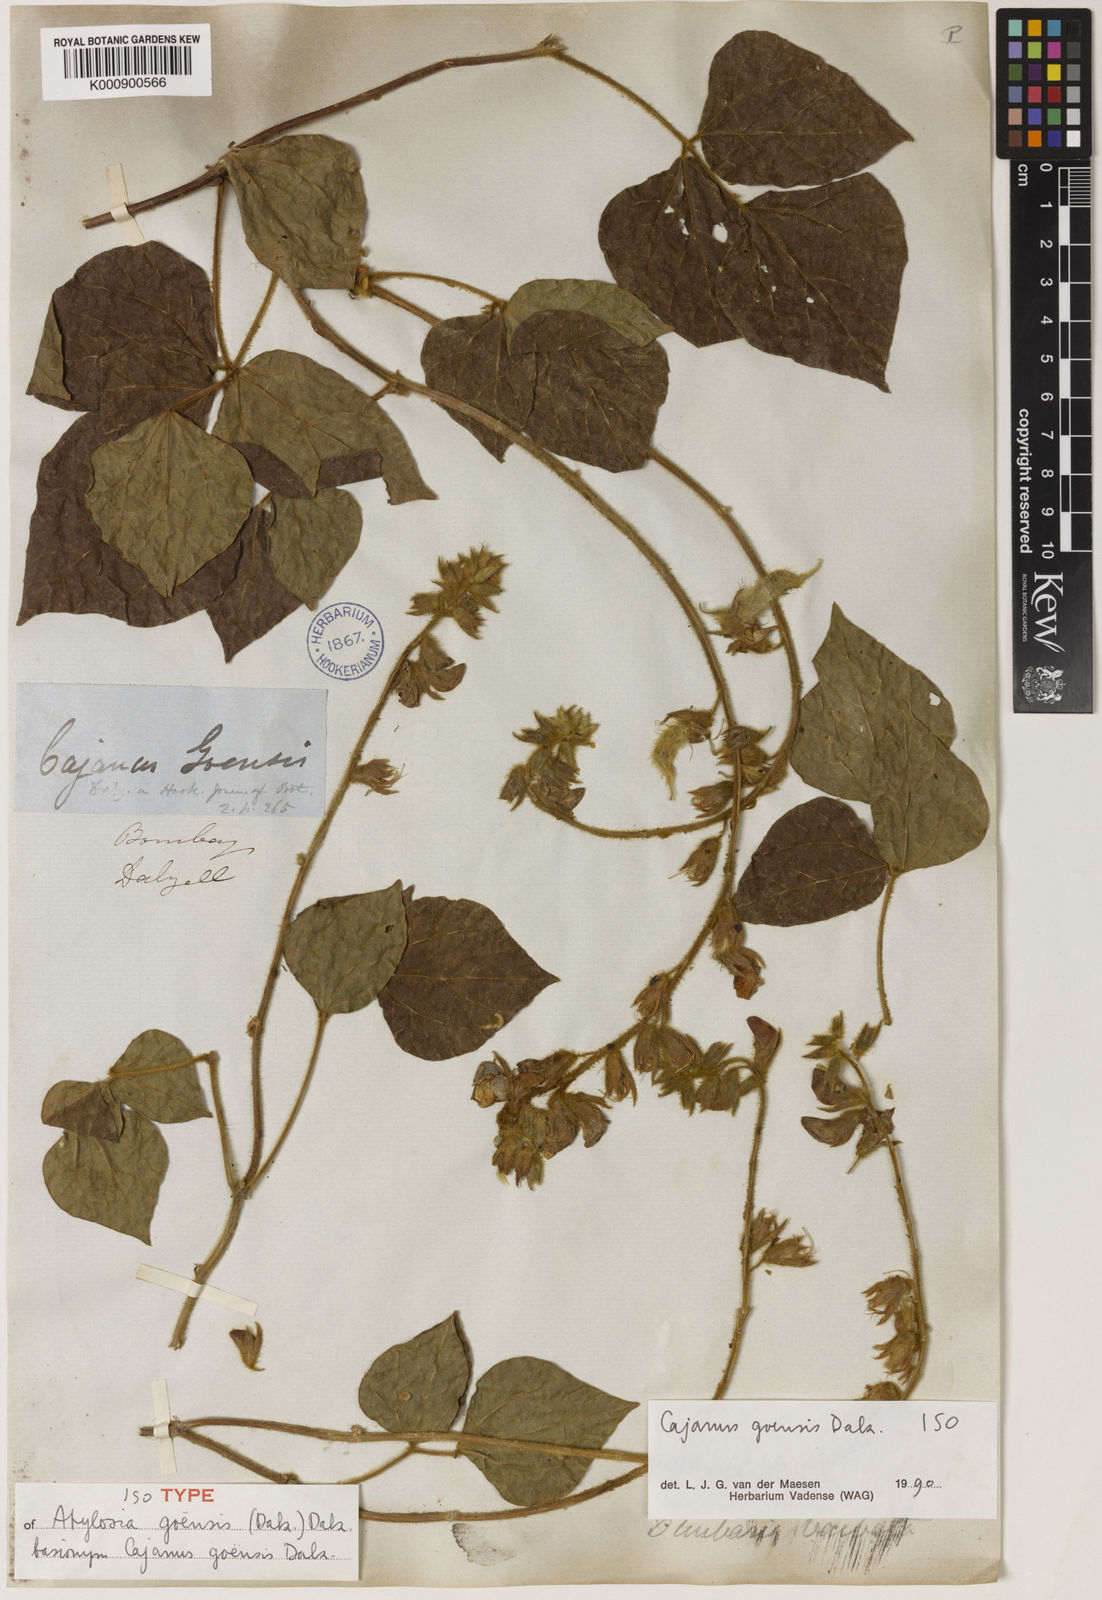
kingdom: Plantae
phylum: Tracheophyta
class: Magnoliopsida
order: Fabales
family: Fabaceae
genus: Cajanus
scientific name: Cajanus goensis
